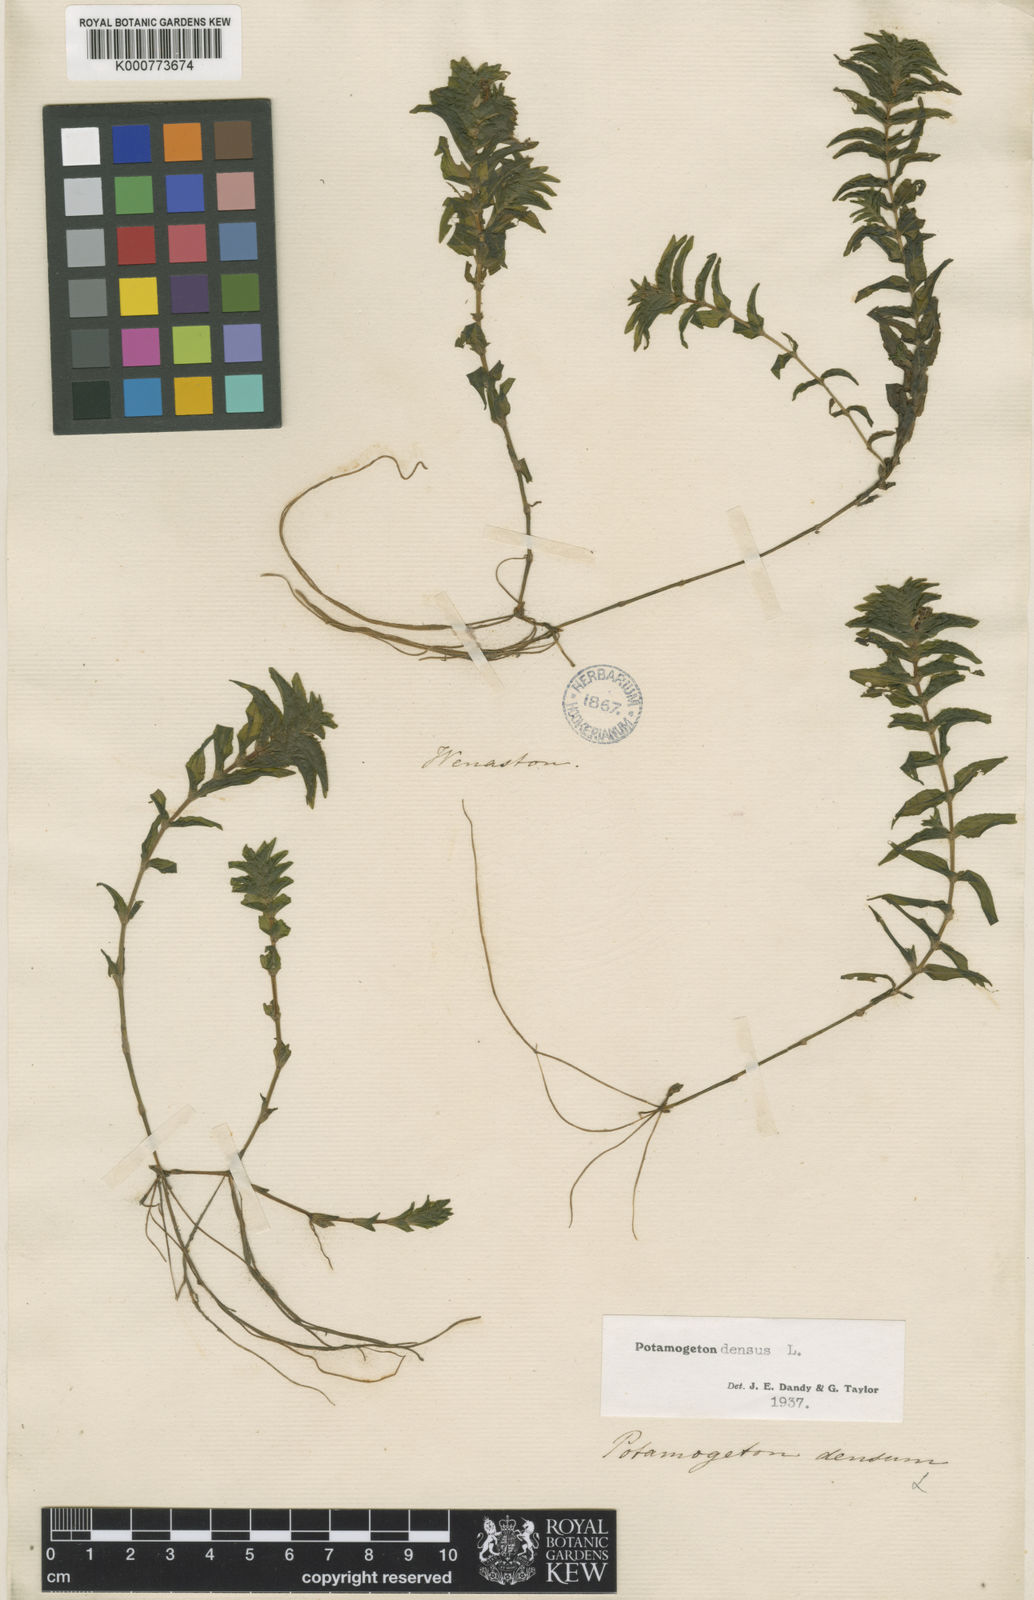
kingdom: Plantae
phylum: Tracheophyta
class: Liliopsida
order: Alismatales
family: Potamogetonaceae
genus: Groenlandia
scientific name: Groenlandia densa
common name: Opposite-leaved pondweed
